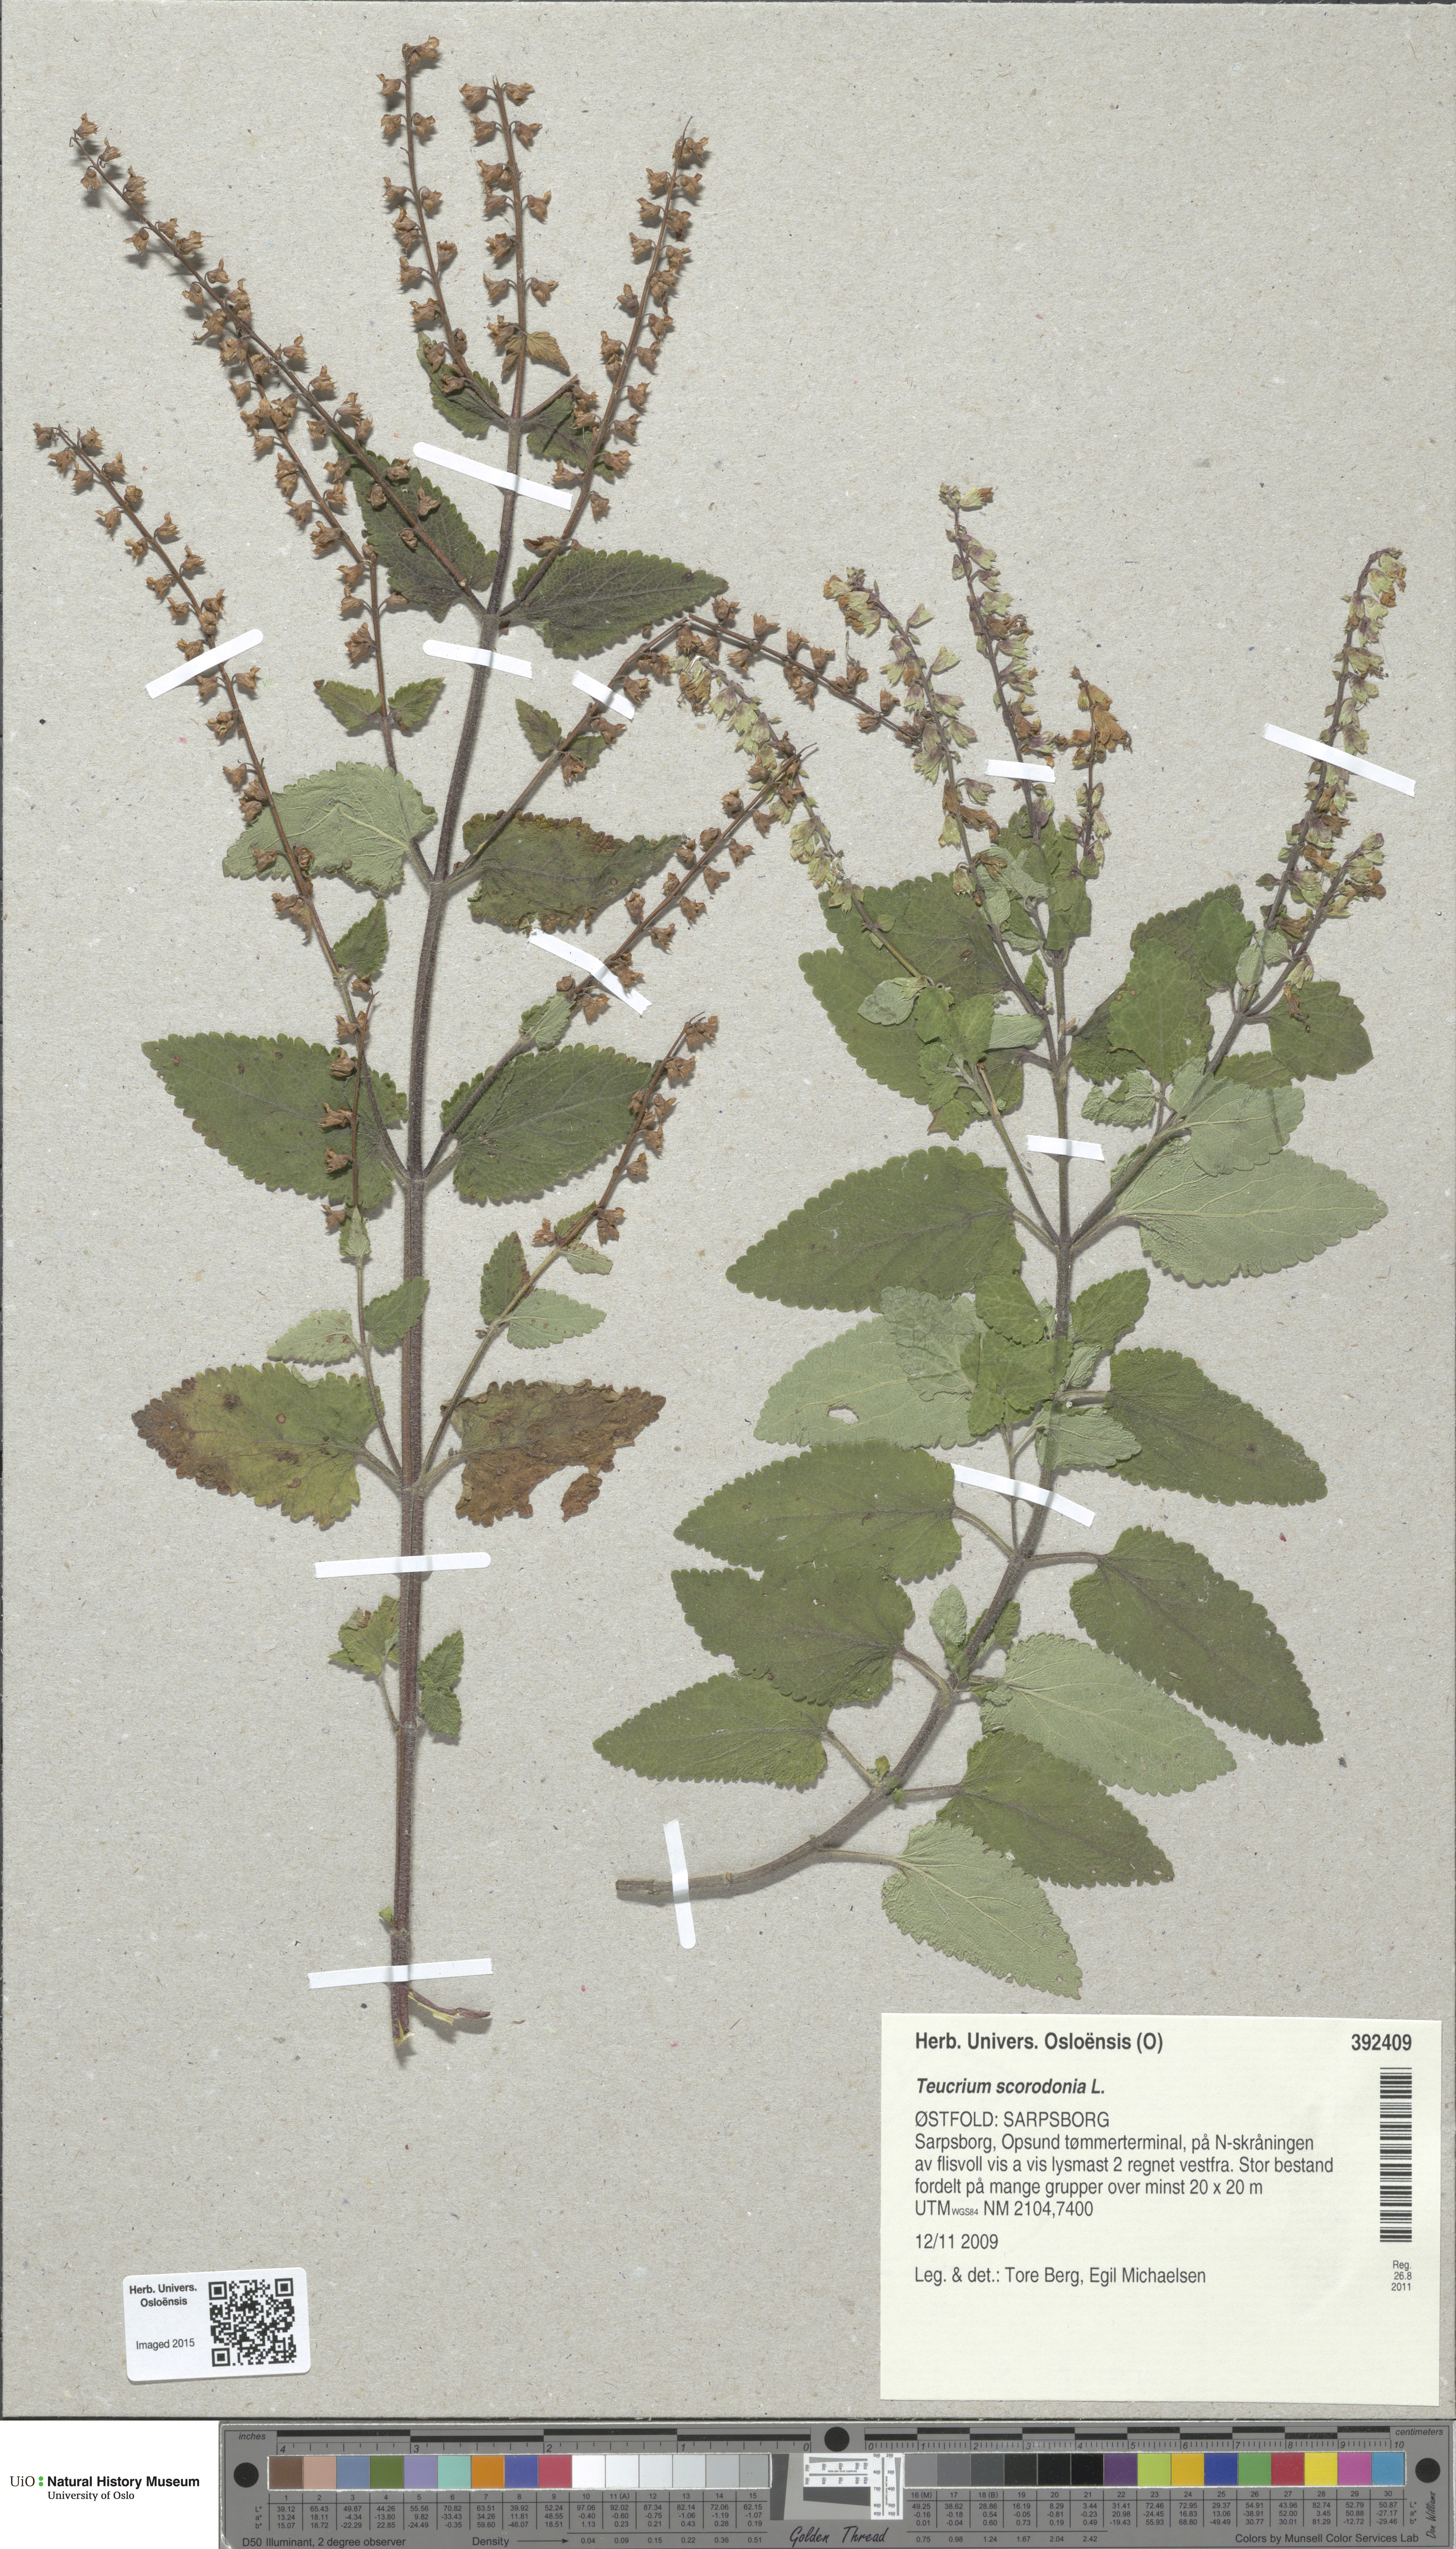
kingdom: Plantae
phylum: Tracheophyta
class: Magnoliopsida
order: Lamiales
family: Lamiaceae
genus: Teucrium
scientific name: Teucrium scorodonia
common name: Woodland germander
